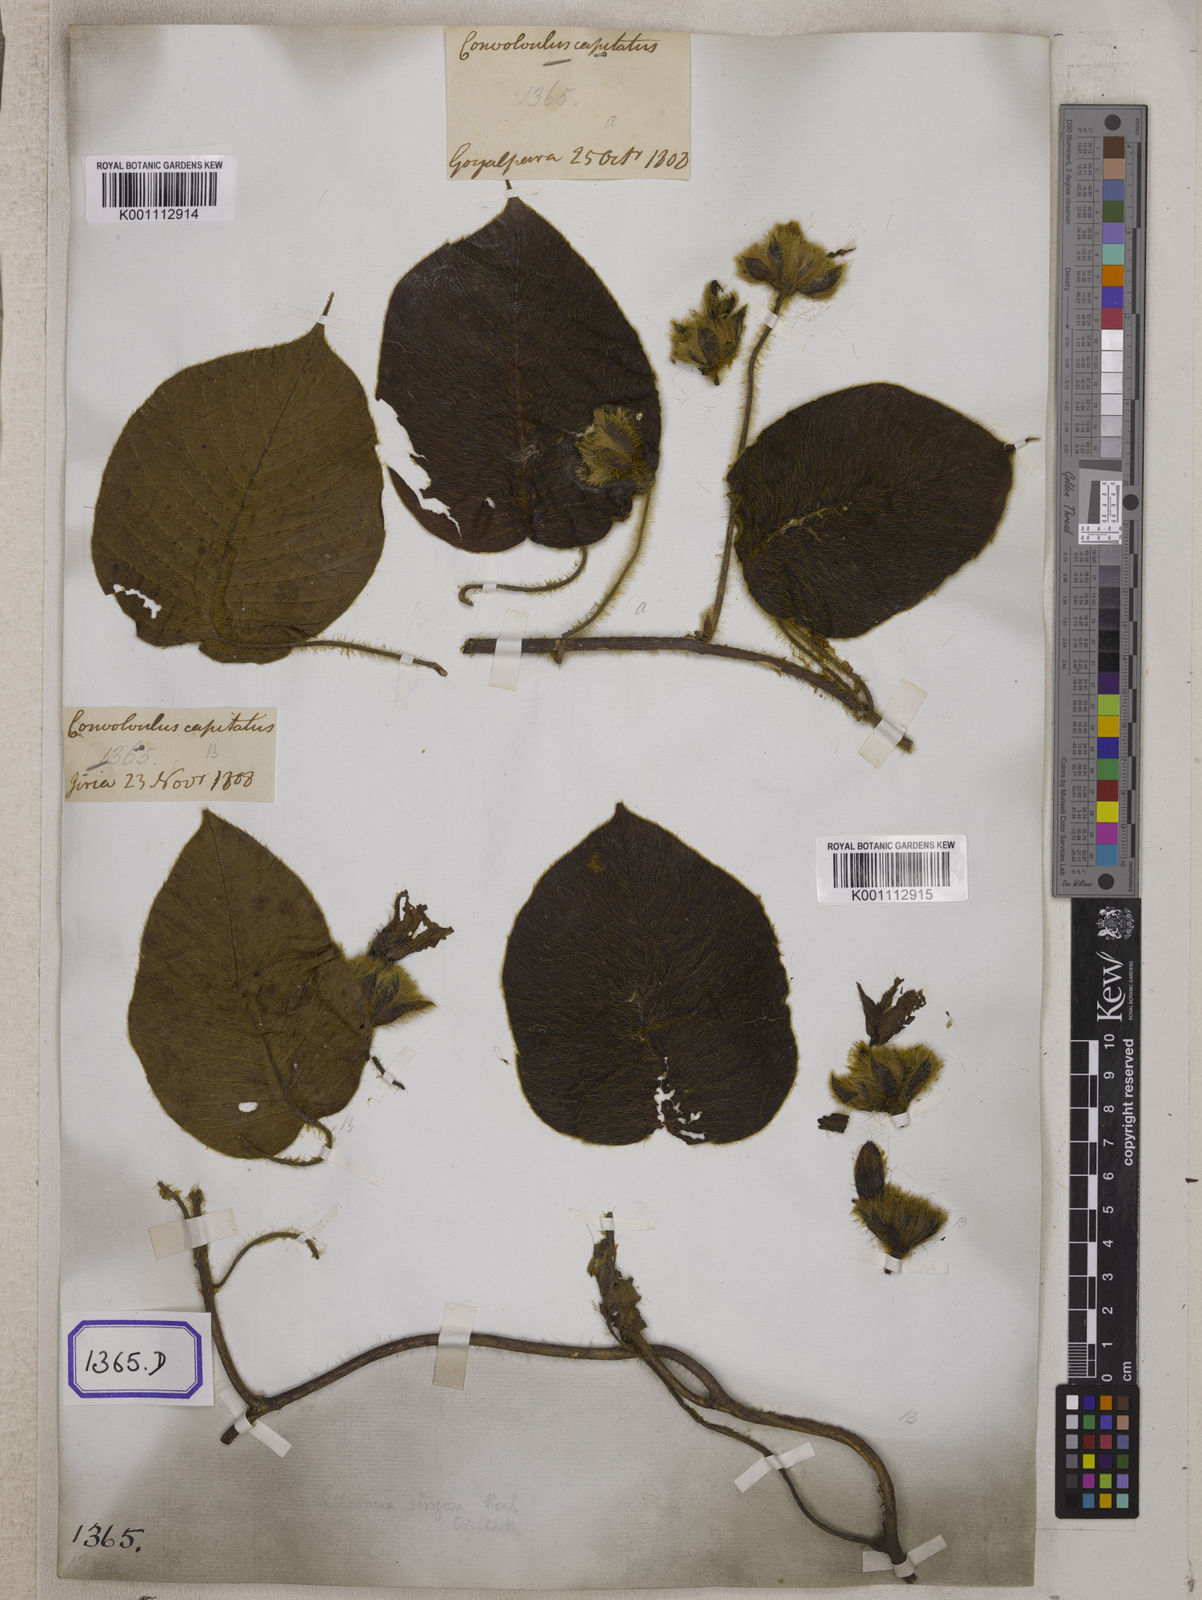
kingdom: Plantae
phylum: Tracheophyta
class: Magnoliopsida
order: Solanales
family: Convolvulaceae
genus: Convolvulus
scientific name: Convolvulus
